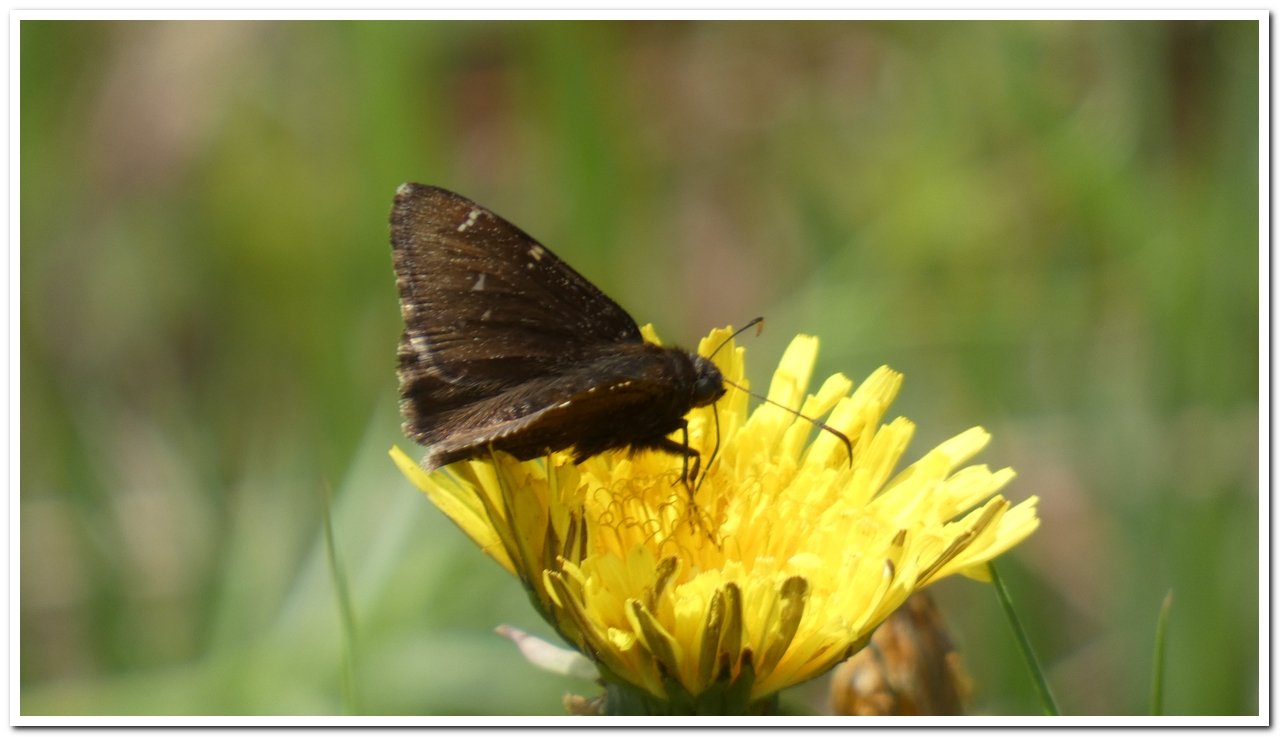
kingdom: Animalia
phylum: Arthropoda
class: Insecta
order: Lepidoptera
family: Hesperiidae
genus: Autochton
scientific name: Autochton
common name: Northern Cloudywing
